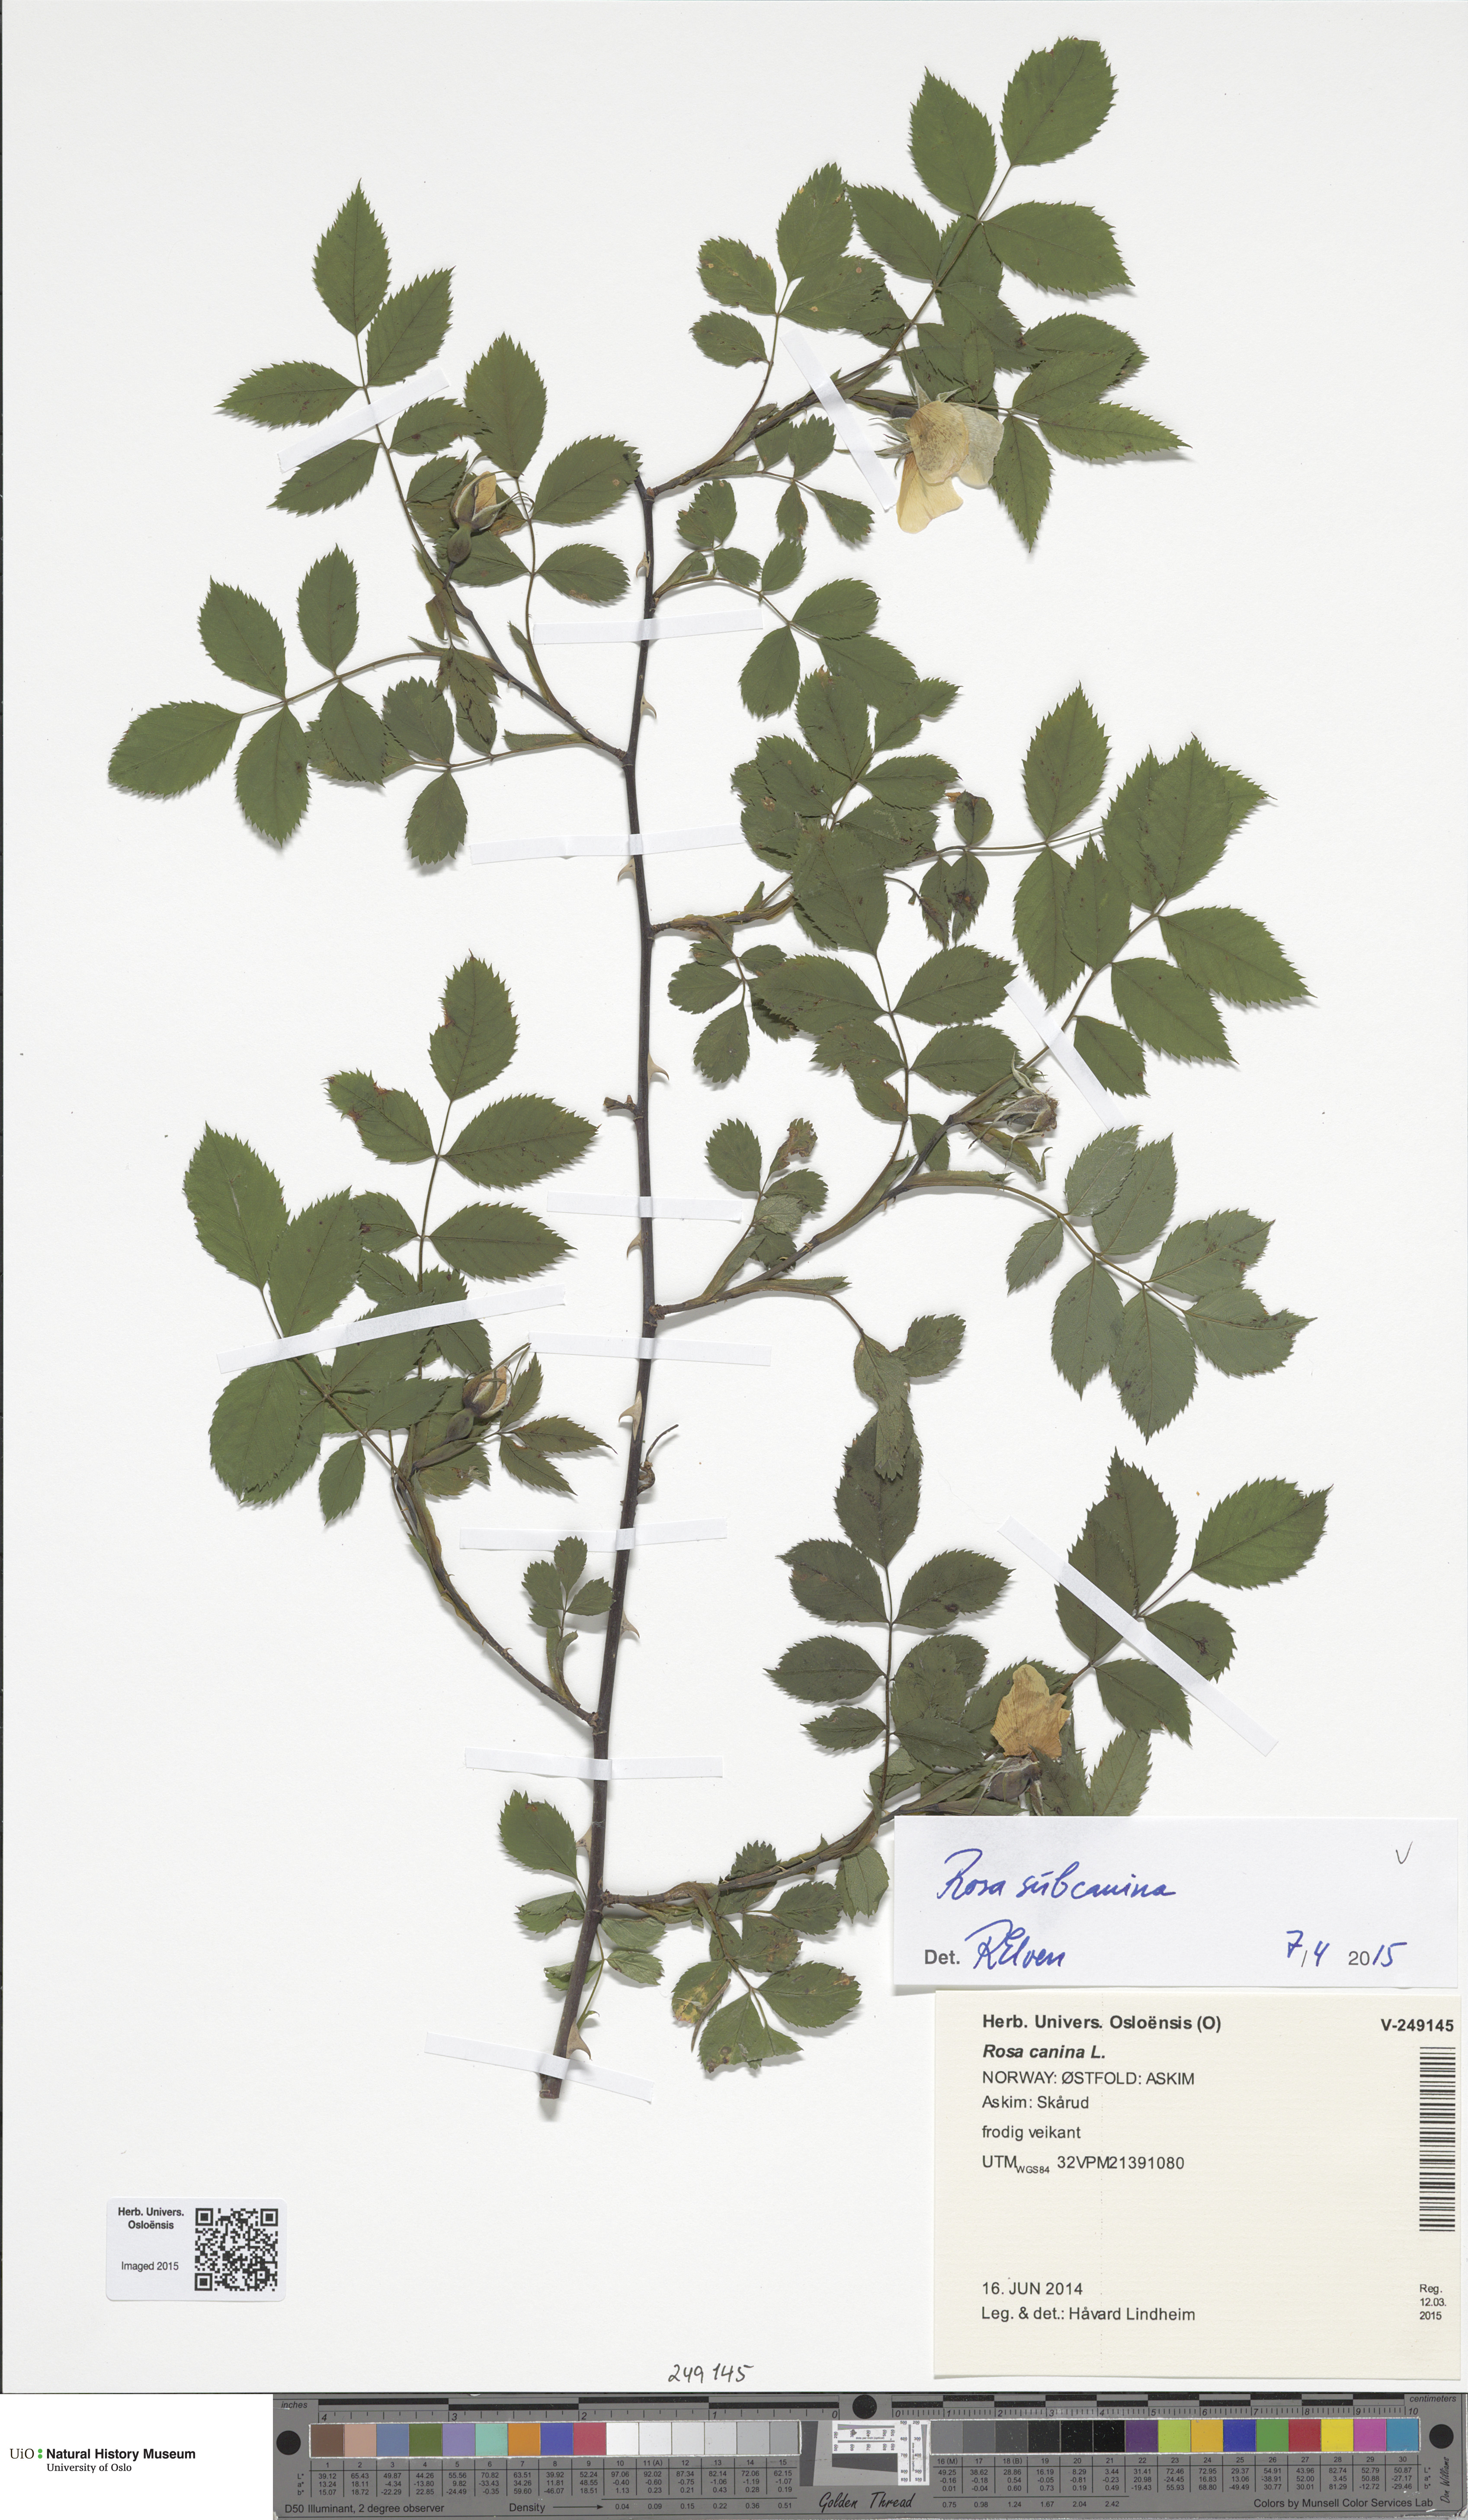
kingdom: Plantae
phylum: Tracheophyta
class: Magnoliopsida
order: Rosales
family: Rosaceae
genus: Rosa
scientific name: Rosa subcanina
